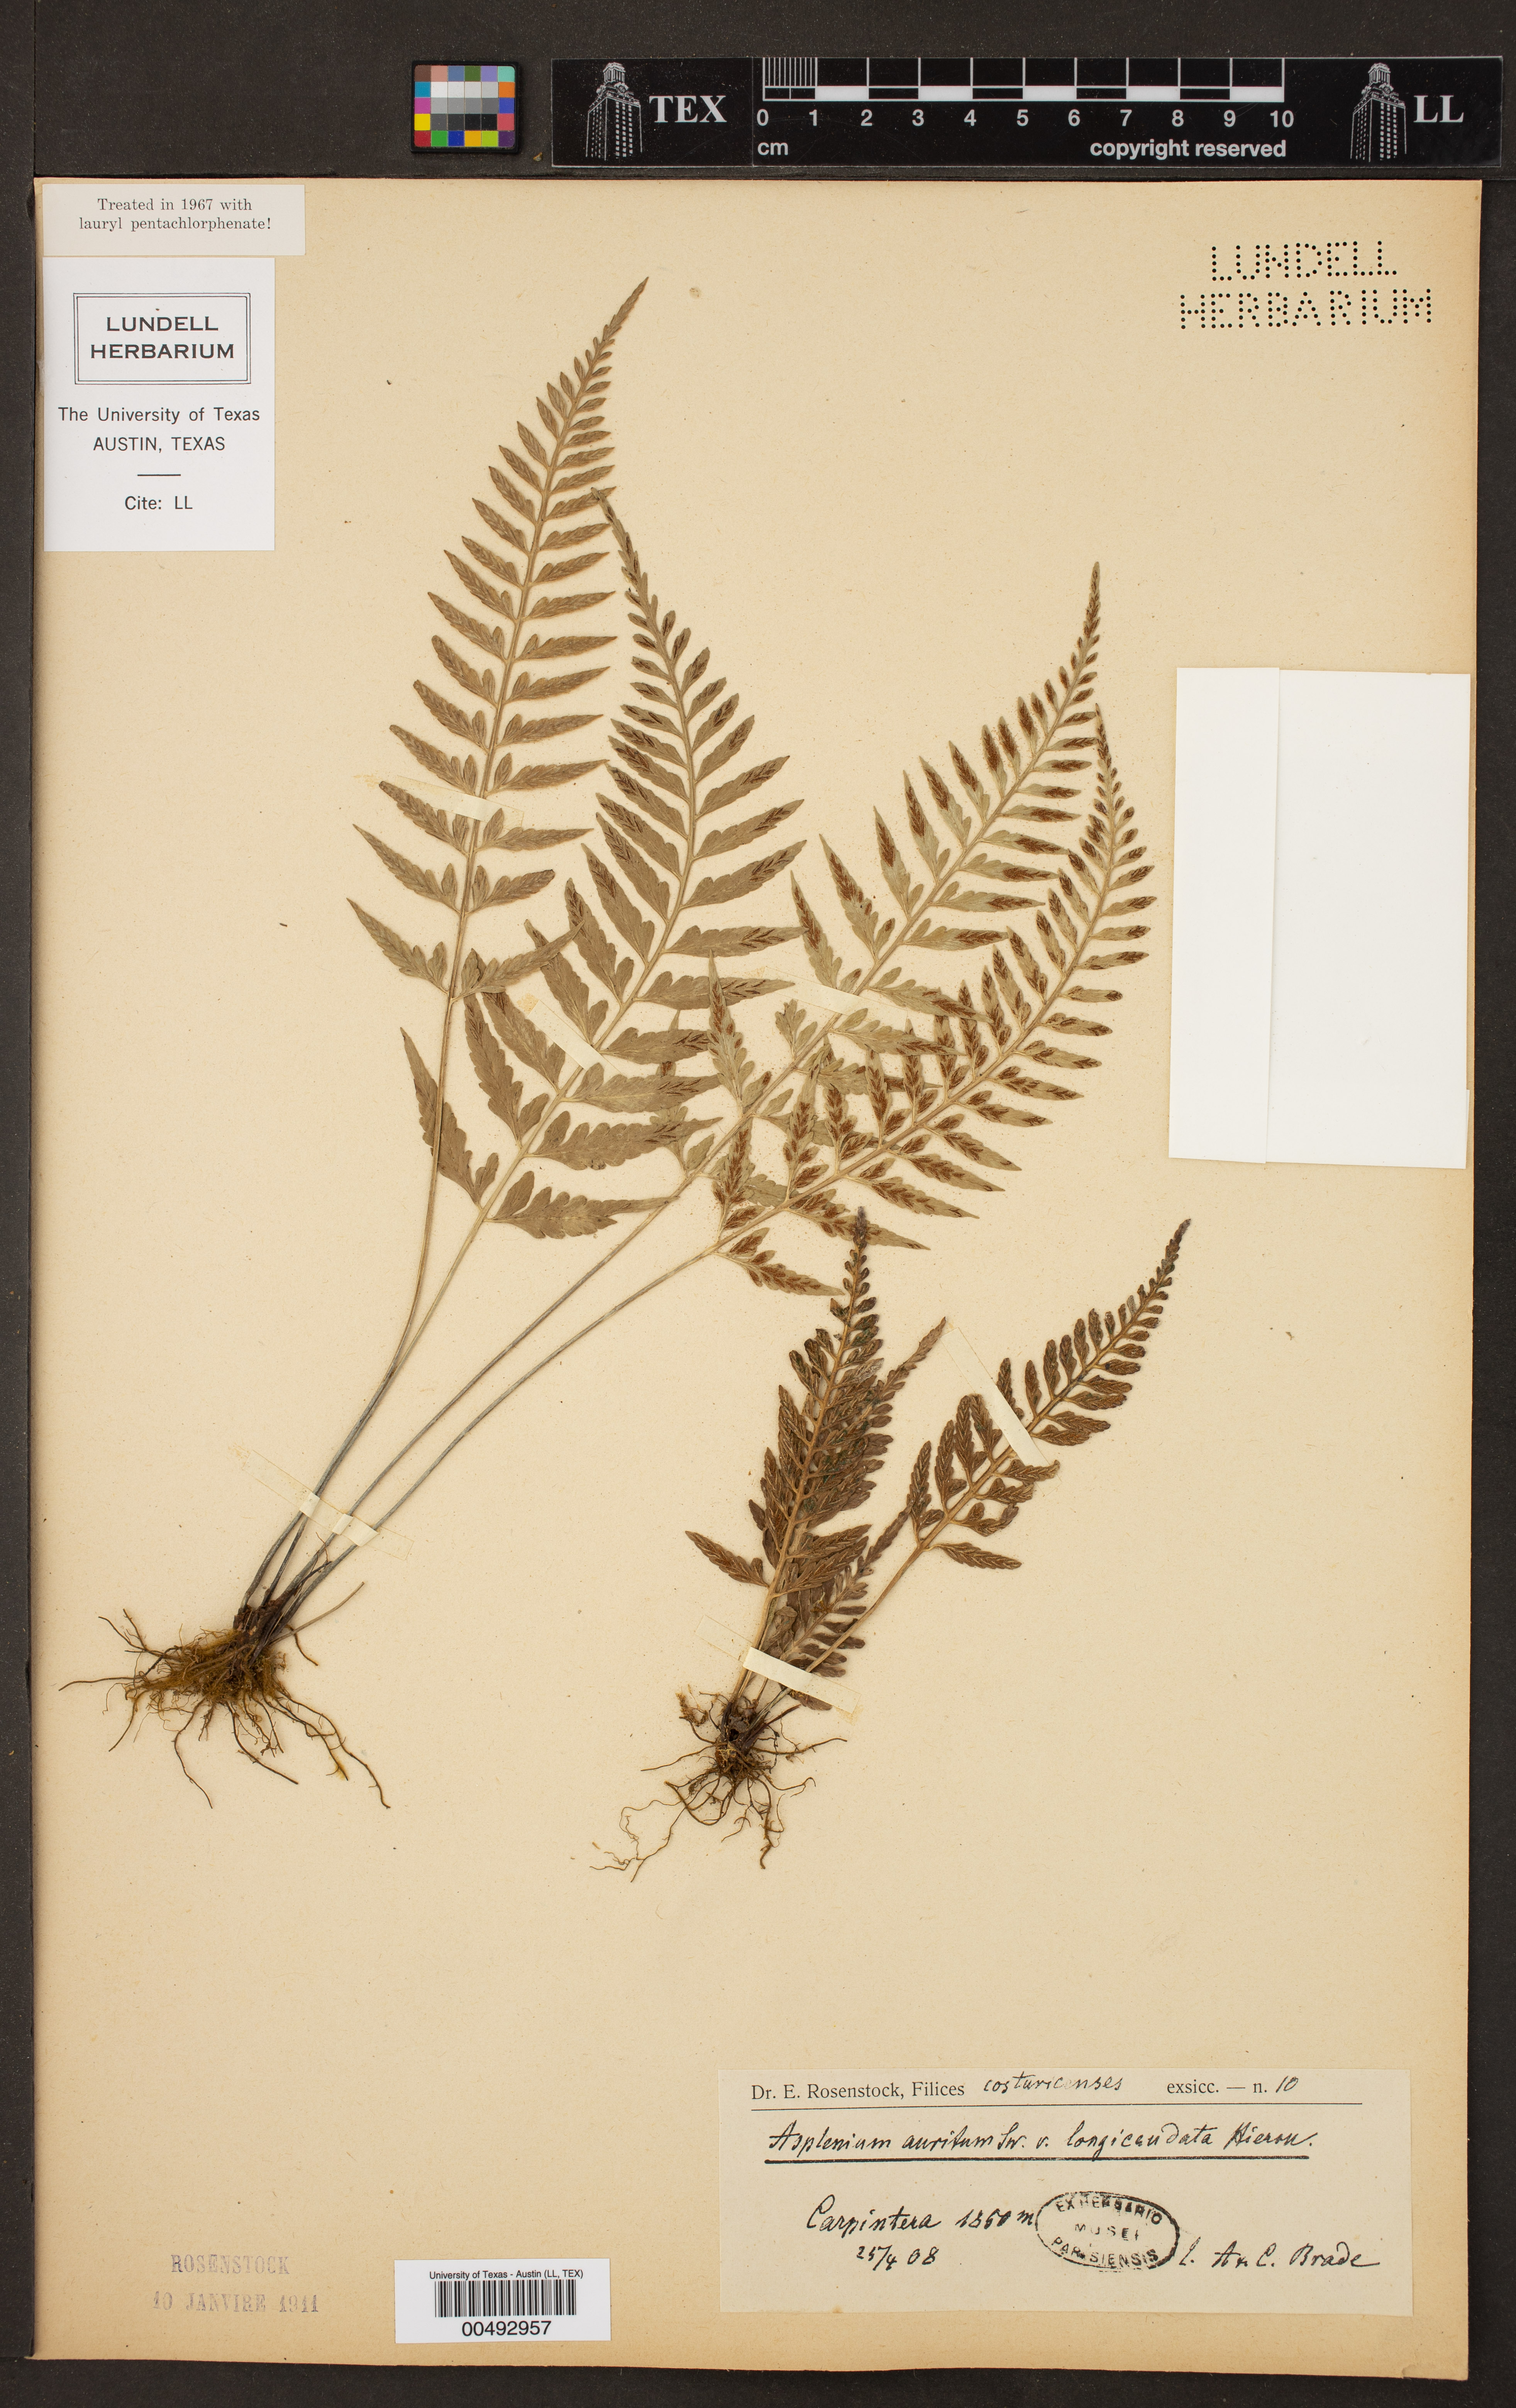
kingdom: Plantae
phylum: Tracheophyta
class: Polypodiopsida
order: Polypodiales
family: Aspleniaceae
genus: Asplenium
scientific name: Asplenium auritum
